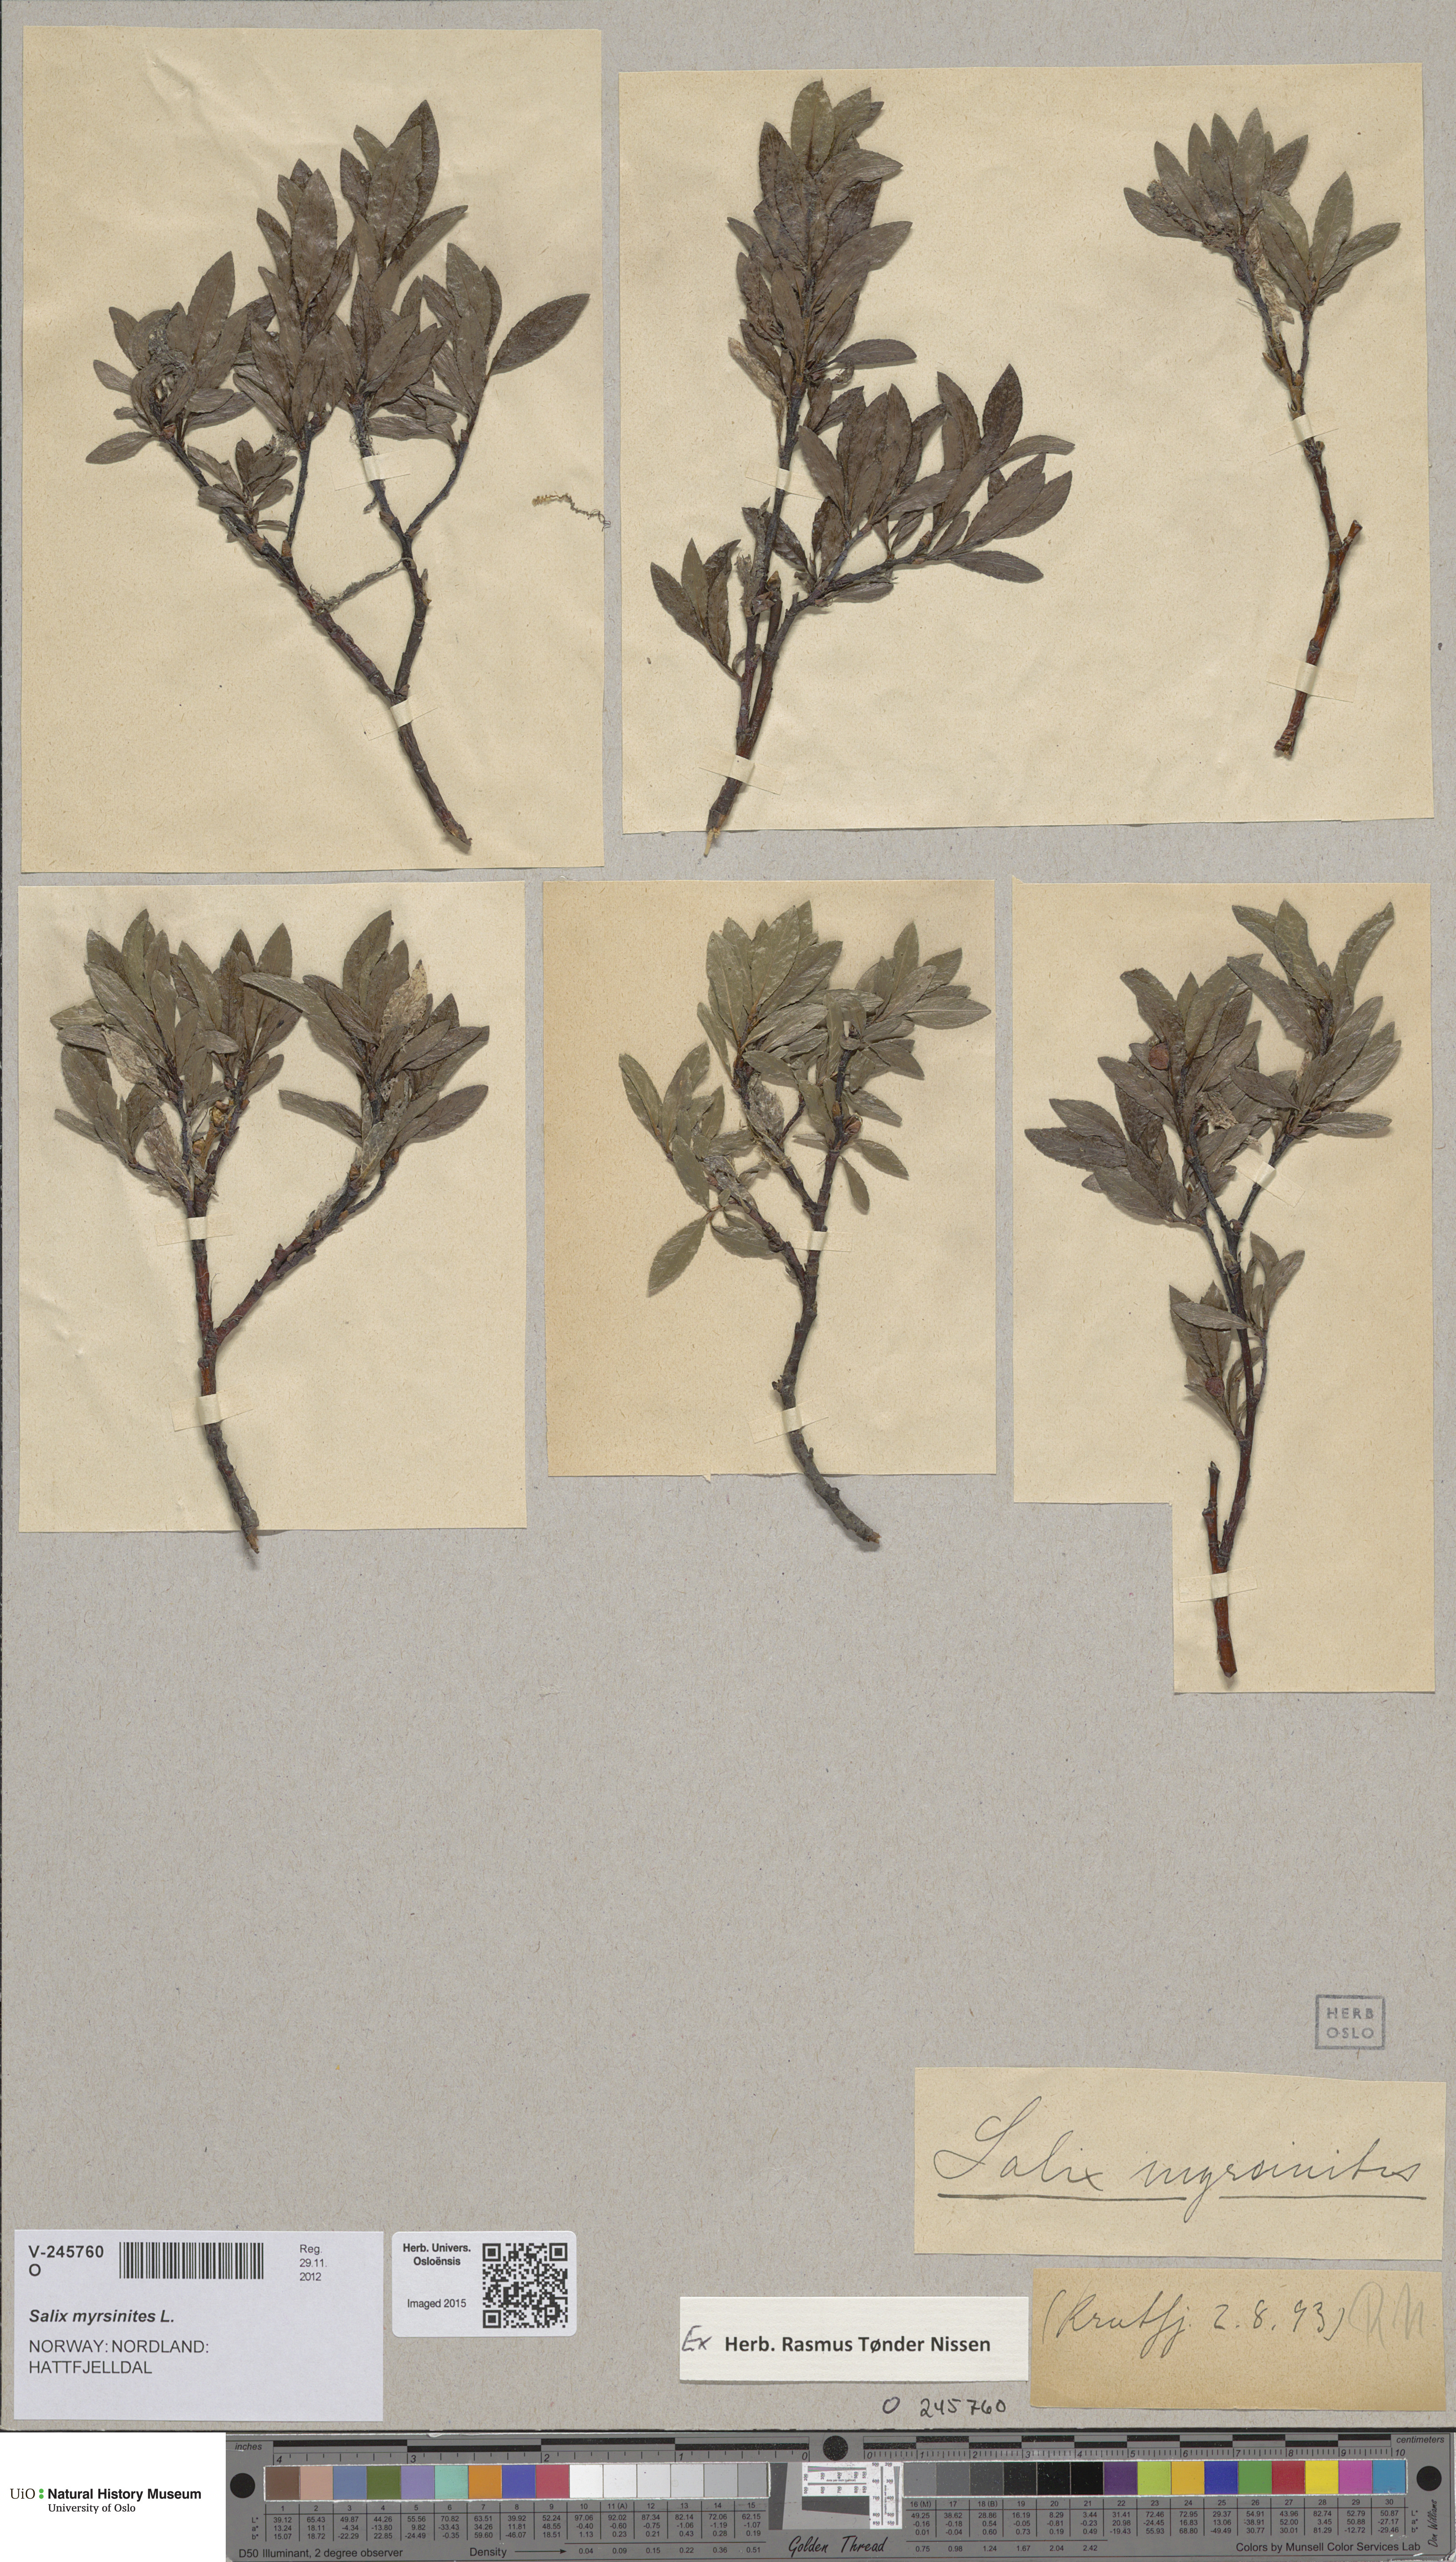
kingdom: Plantae
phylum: Tracheophyta
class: Magnoliopsida
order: Malpighiales
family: Salicaceae
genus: Salix
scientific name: Salix myrsinites
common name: Myrtle willow
